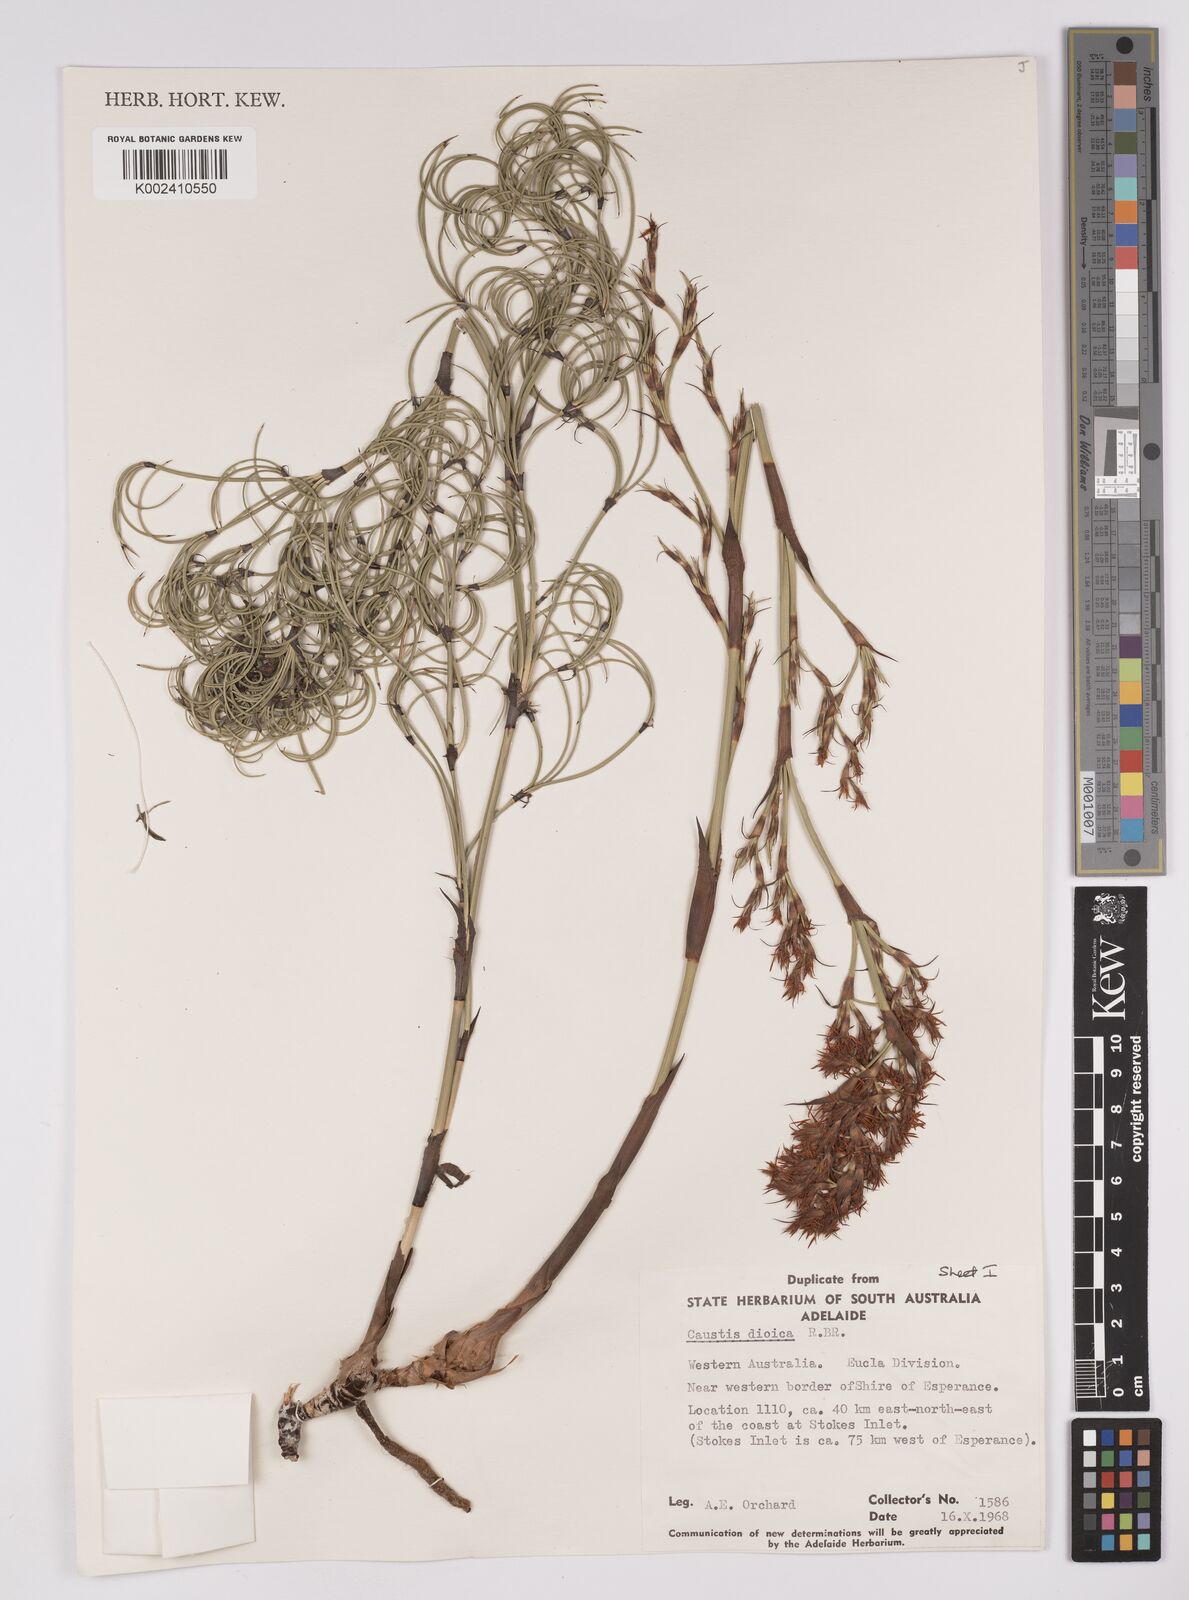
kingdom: Plantae
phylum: Tracheophyta
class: Liliopsida
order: Poales
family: Cyperaceae
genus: Caustis
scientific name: Caustis dioica
